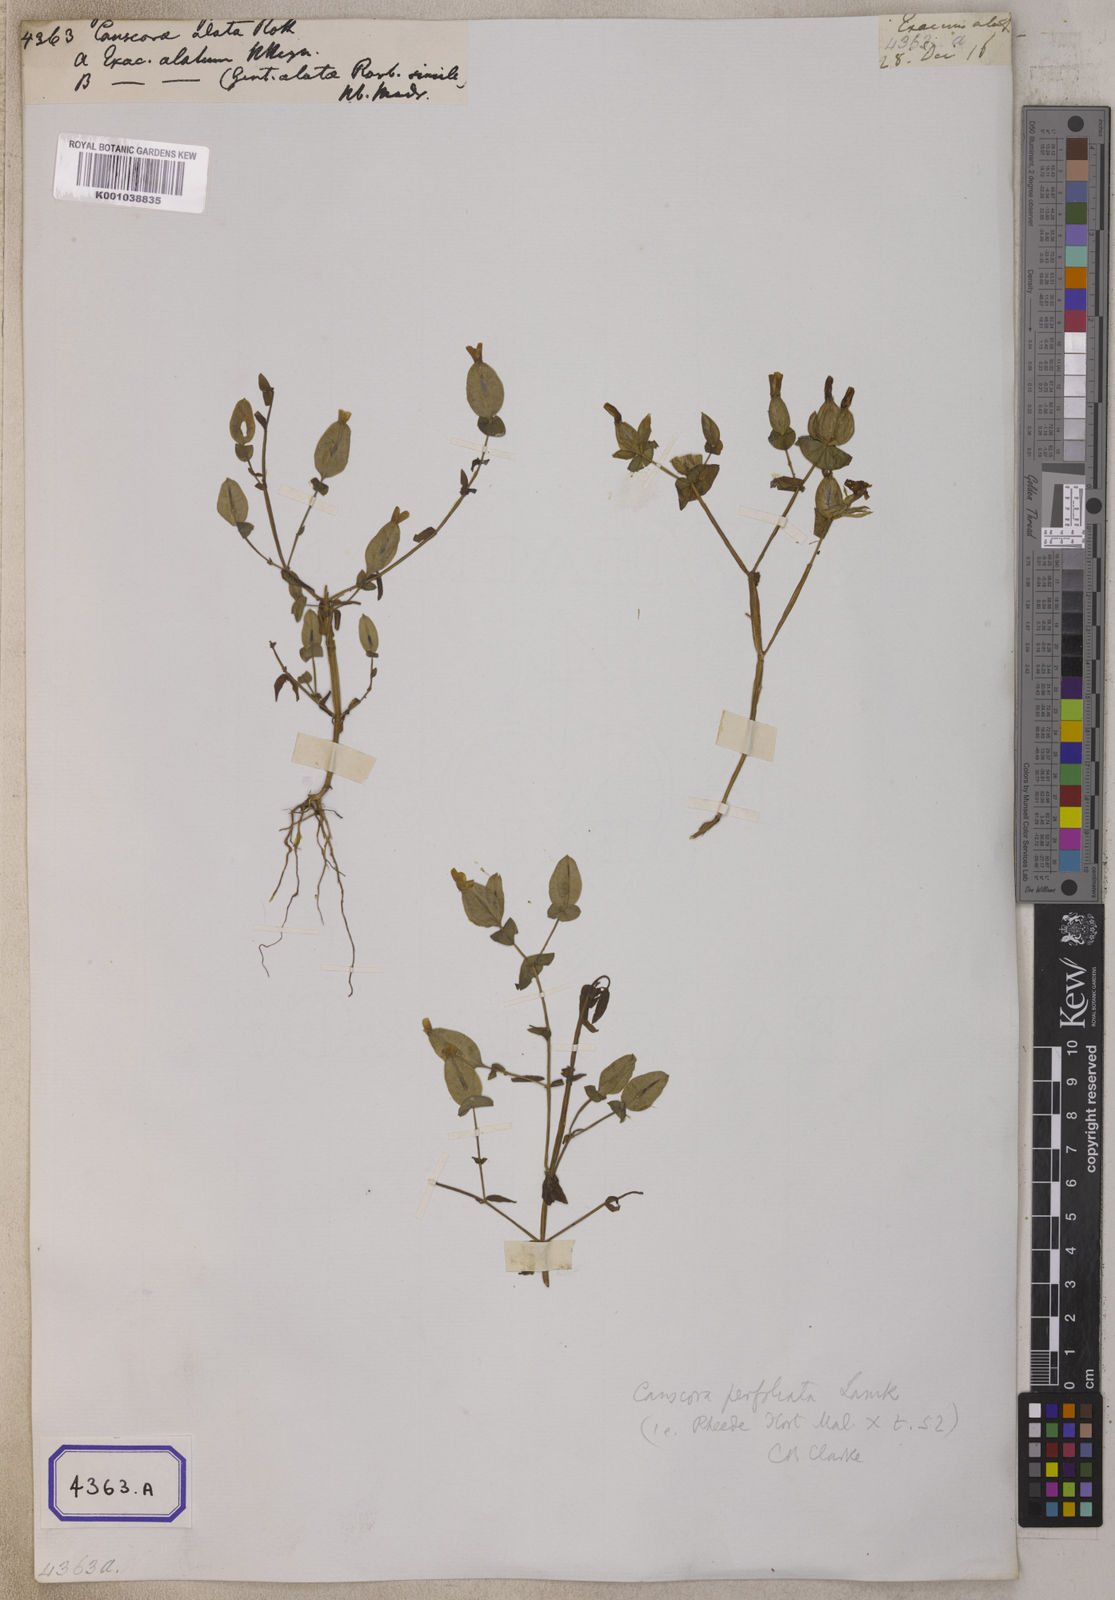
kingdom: Plantae
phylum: Tracheophyta
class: Magnoliopsida
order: Gentianales
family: Gentianaceae
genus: Canscora
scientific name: Canscora alata
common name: Canscora
